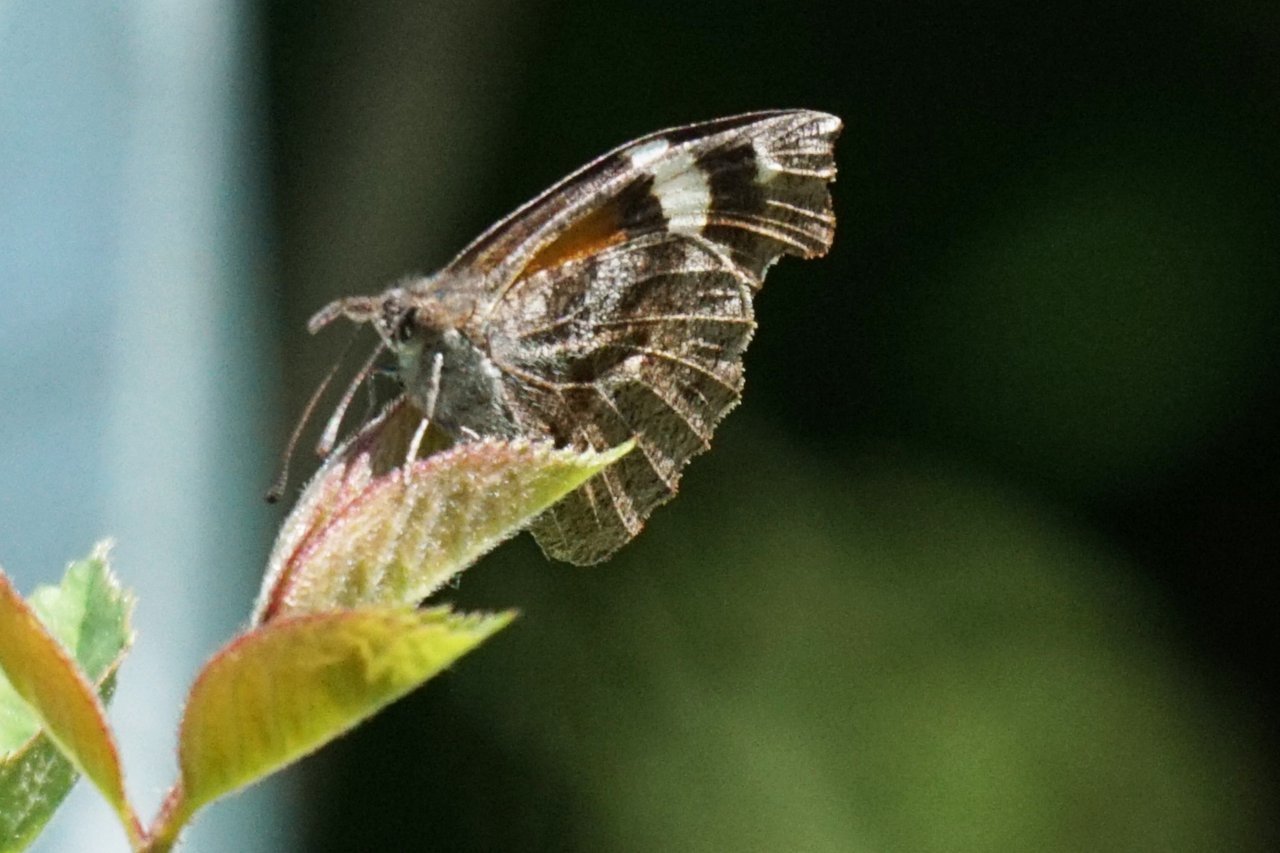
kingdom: Animalia
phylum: Arthropoda
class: Insecta
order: Lepidoptera
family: Nymphalidae
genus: Libytheana
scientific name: Libytheana carinenta
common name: American Snout
